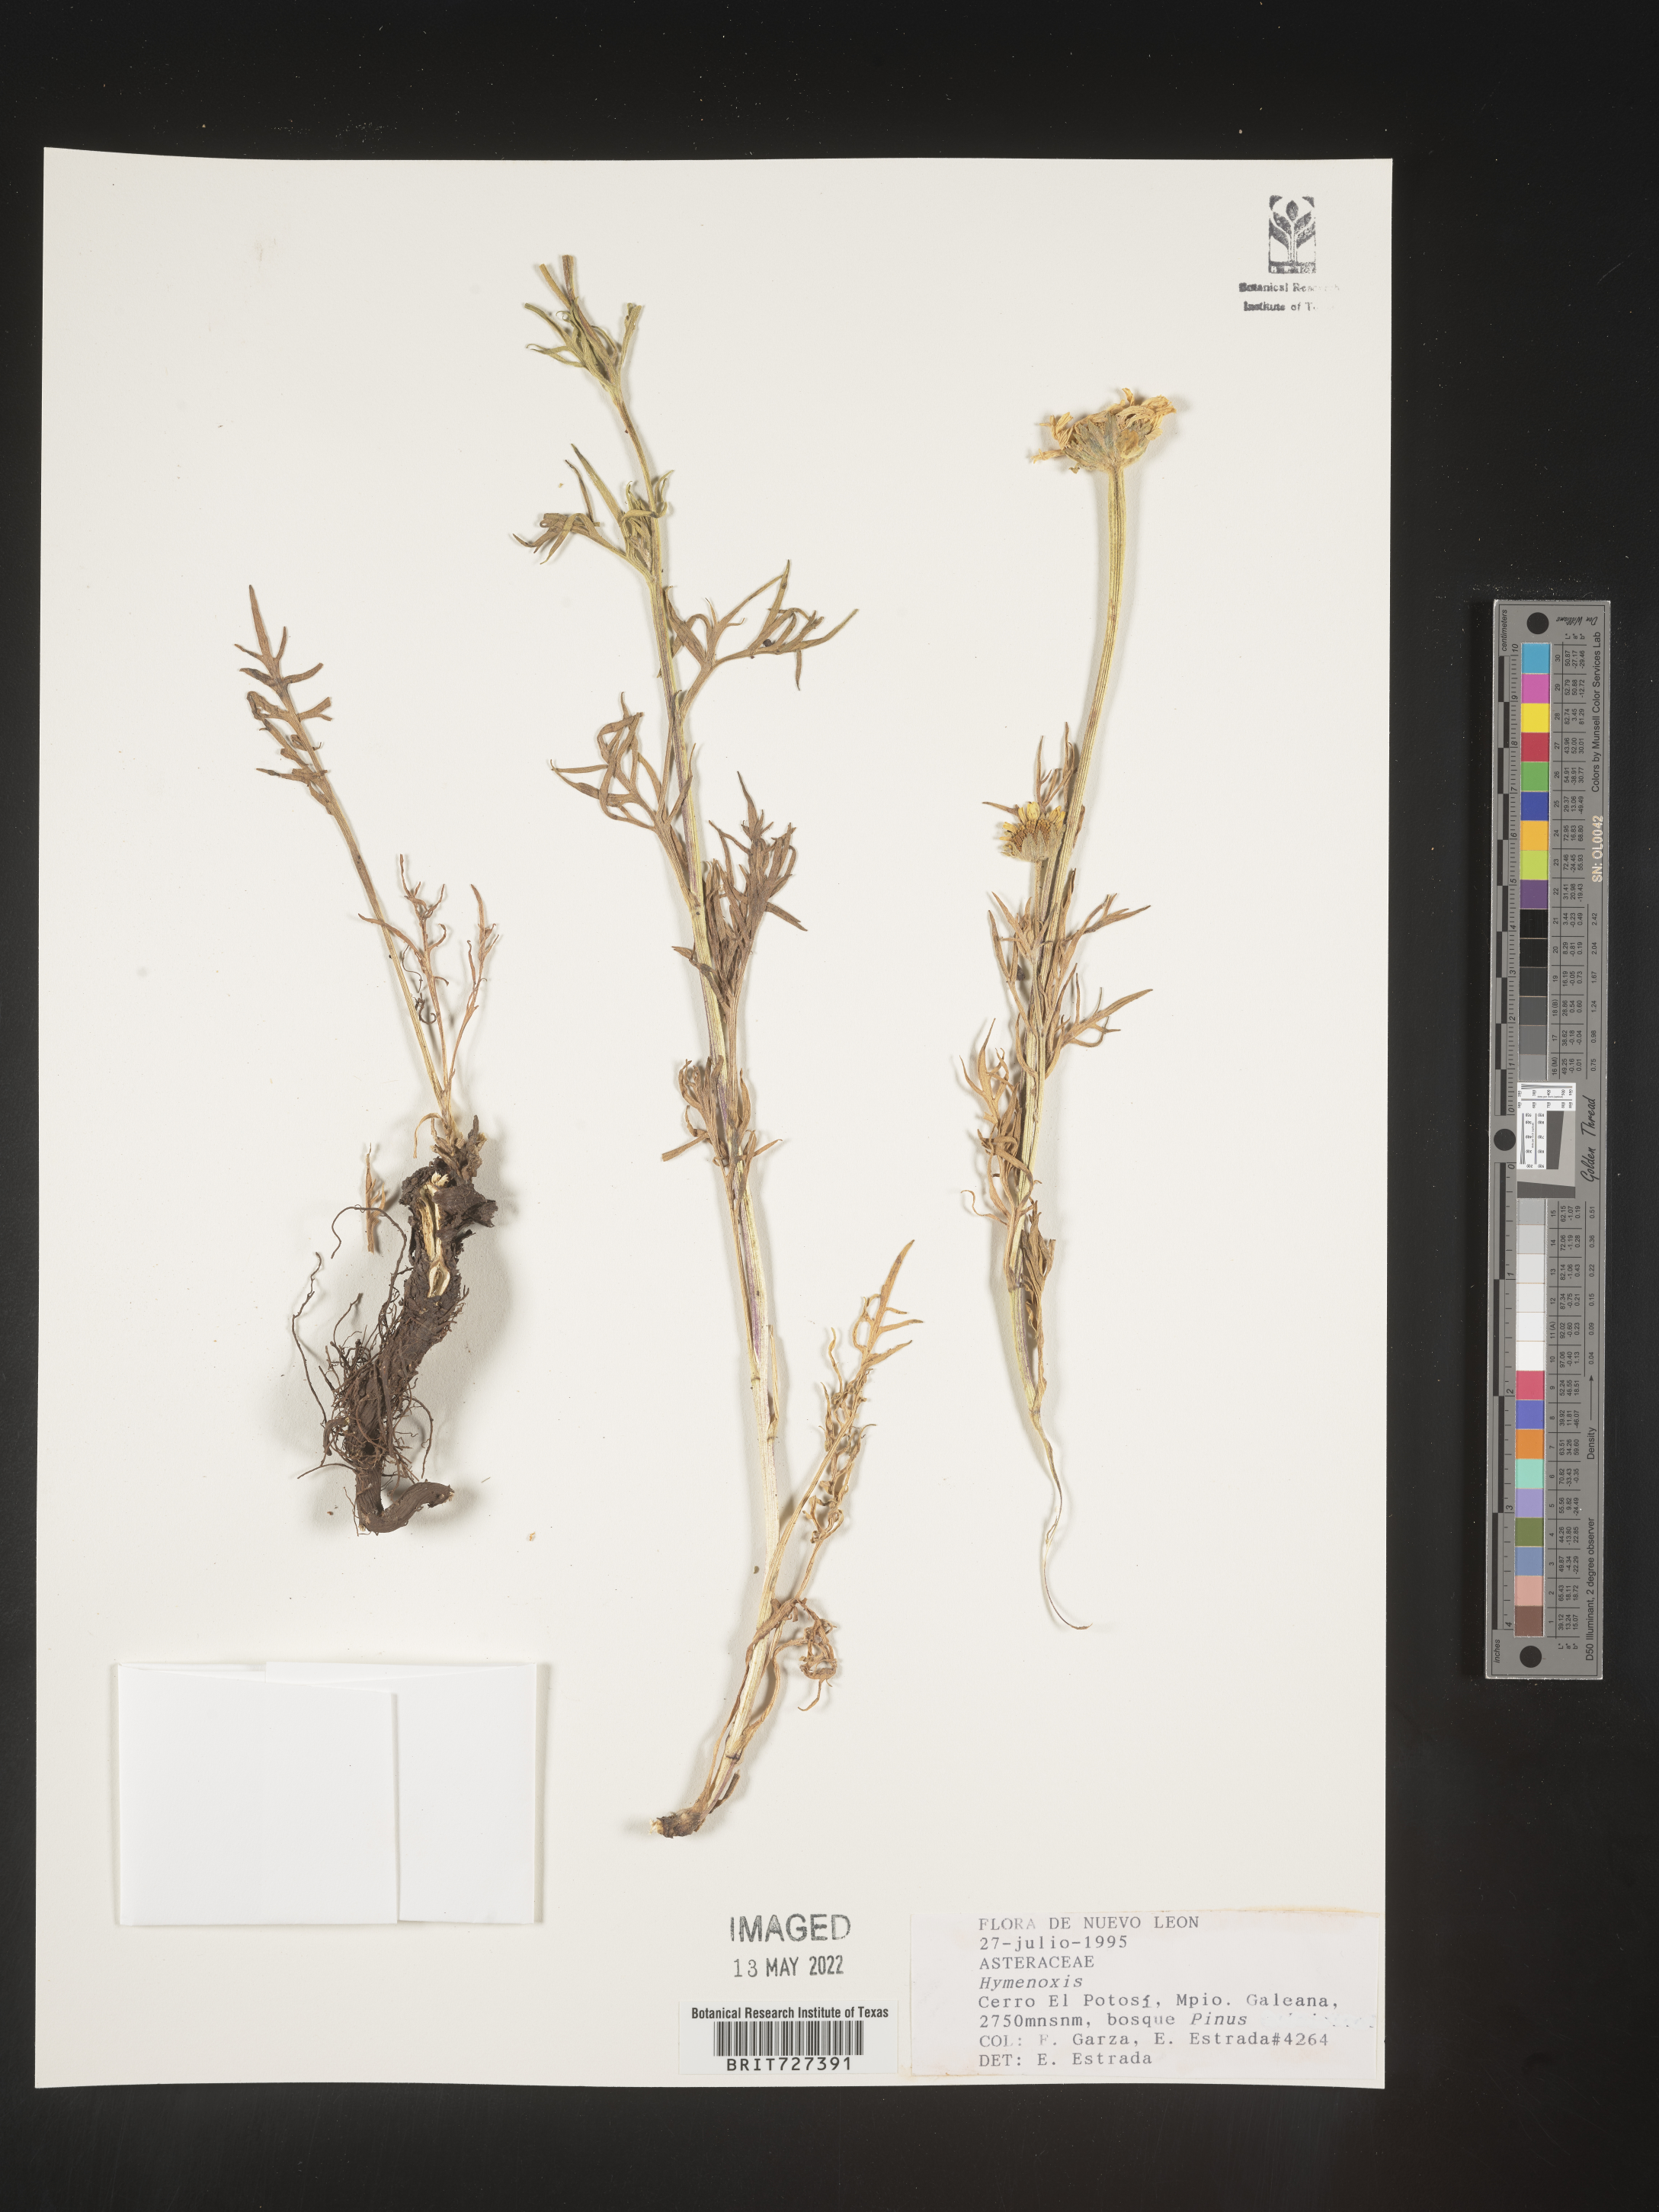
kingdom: Plantae
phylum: Tracheophyta
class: Magnoliopsida
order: Asterales
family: Asteraceae
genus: Hymenoxys
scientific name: Hymenoxys
